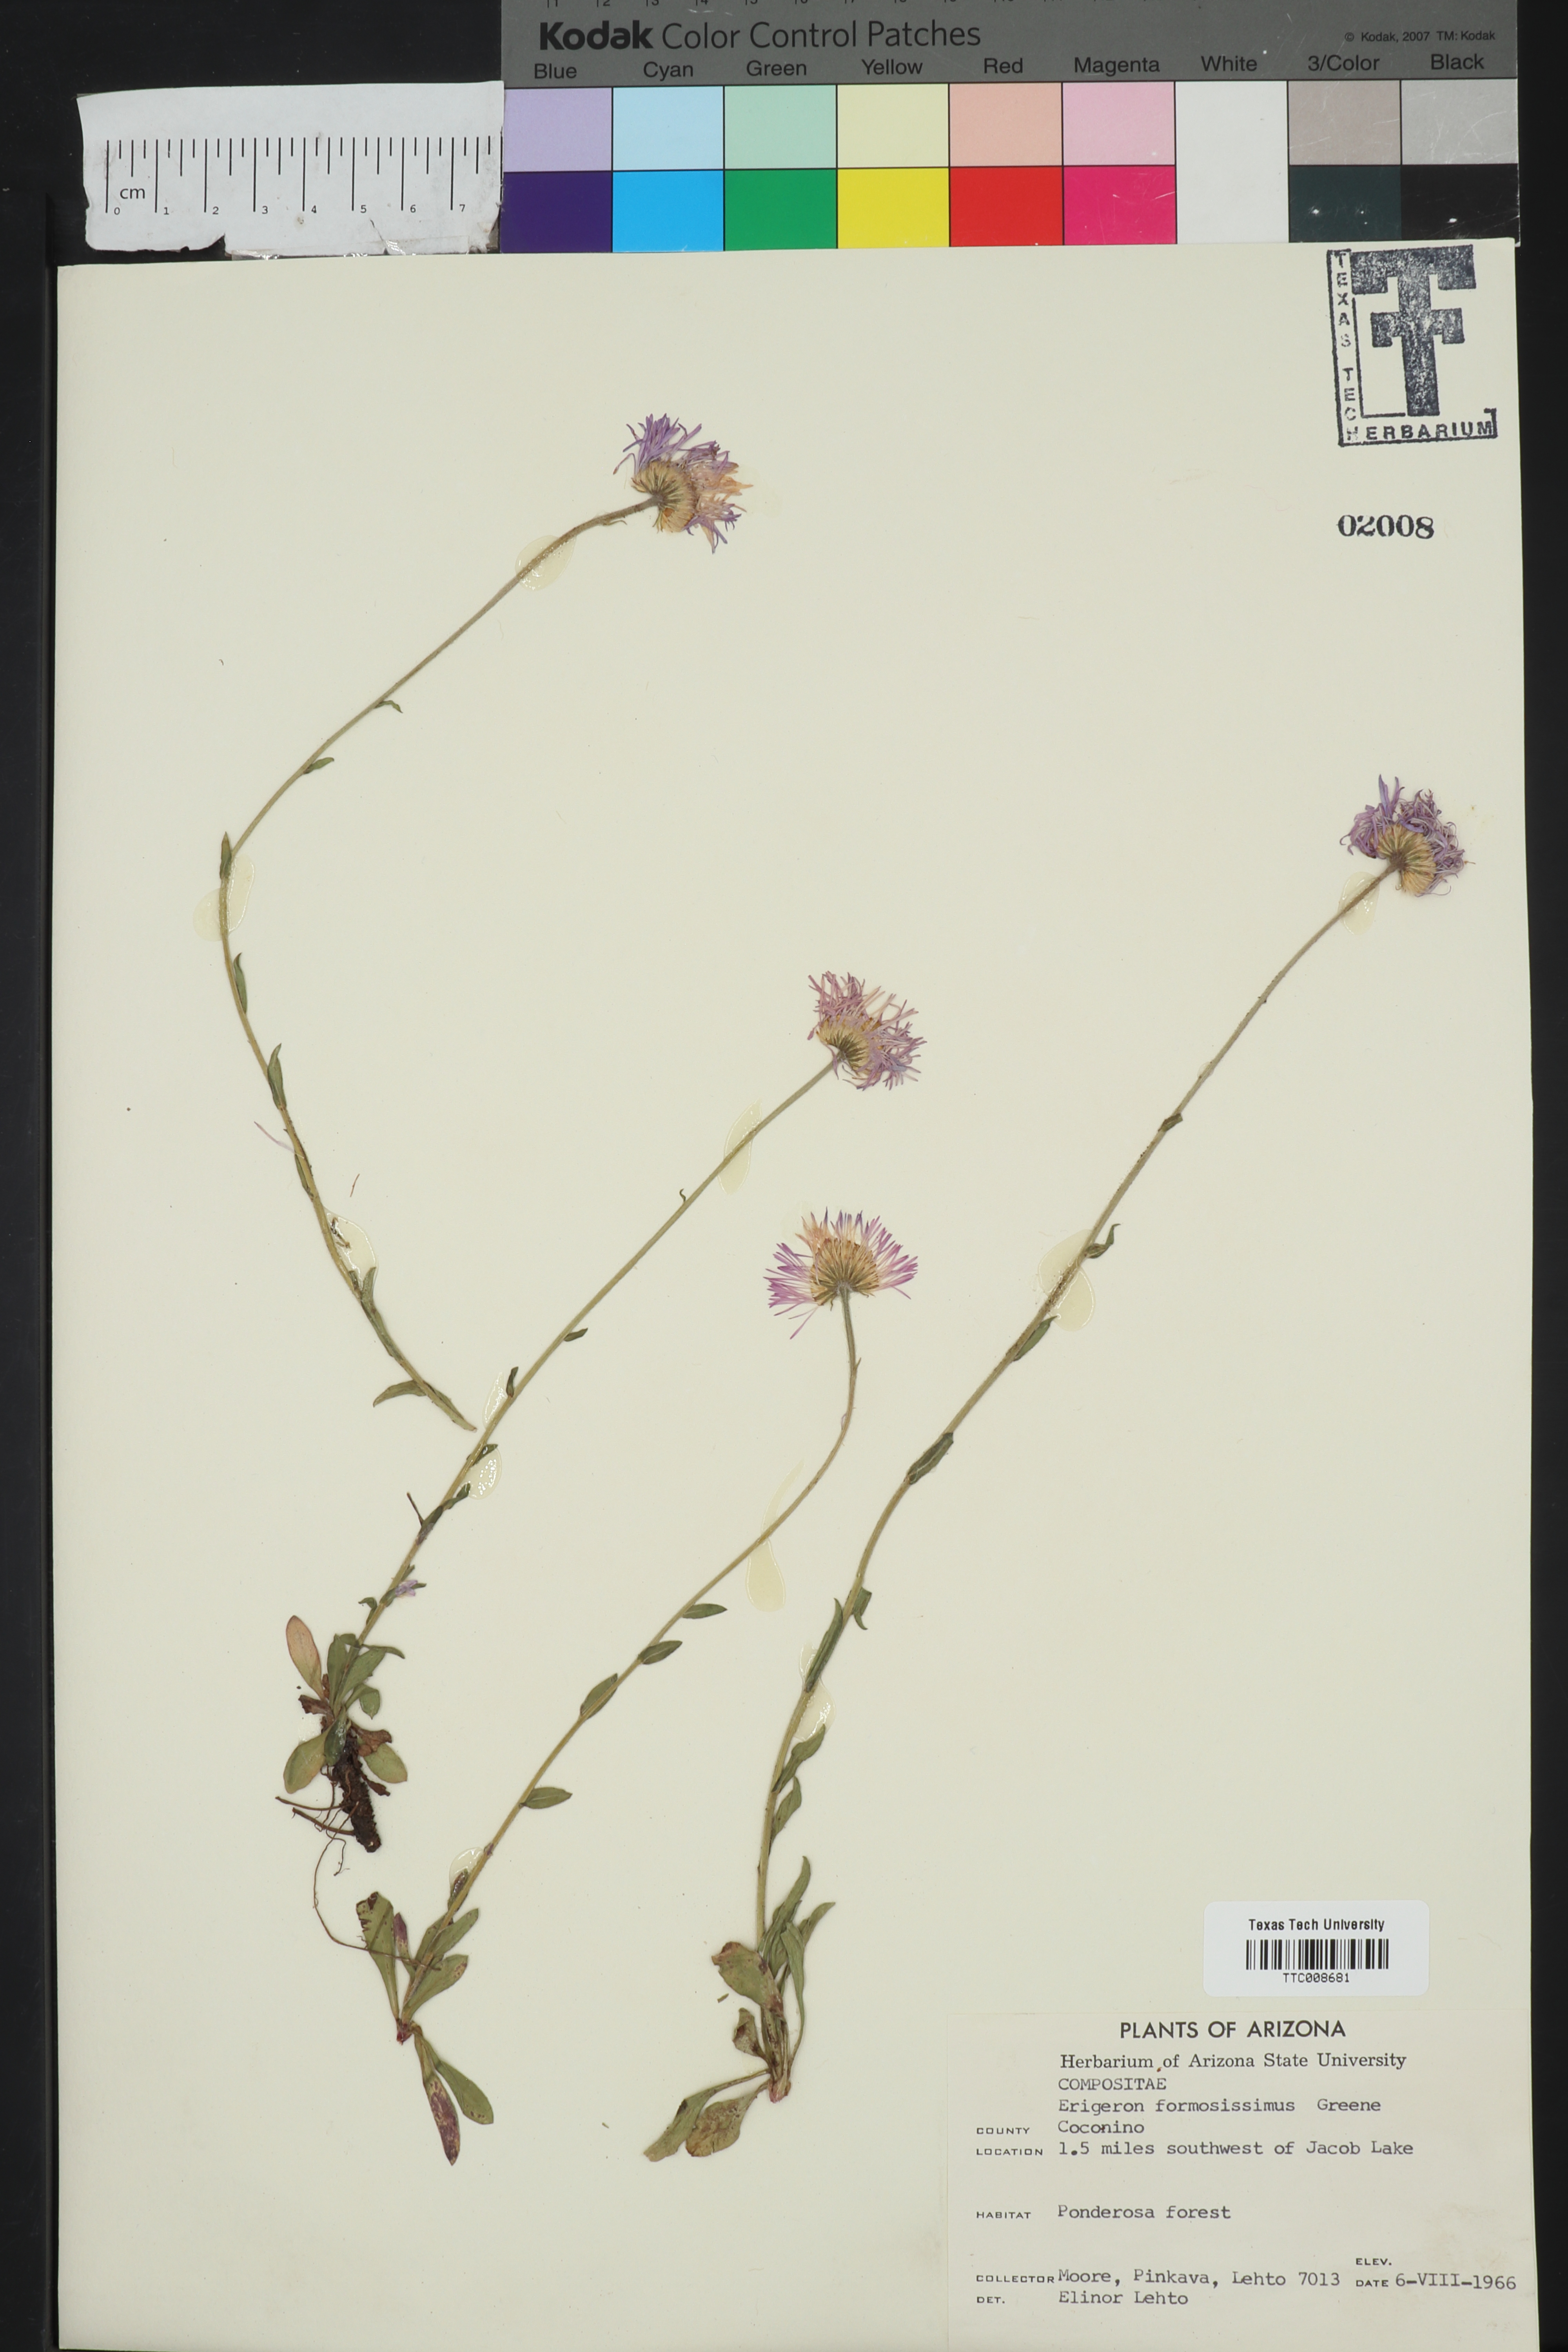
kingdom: Plantae
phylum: Tracheophyta
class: Magnoliopsida
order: Asterales
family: Asteraceae
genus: Erigeron
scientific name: Erigeron formosissimus
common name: Beautiful fleabane
